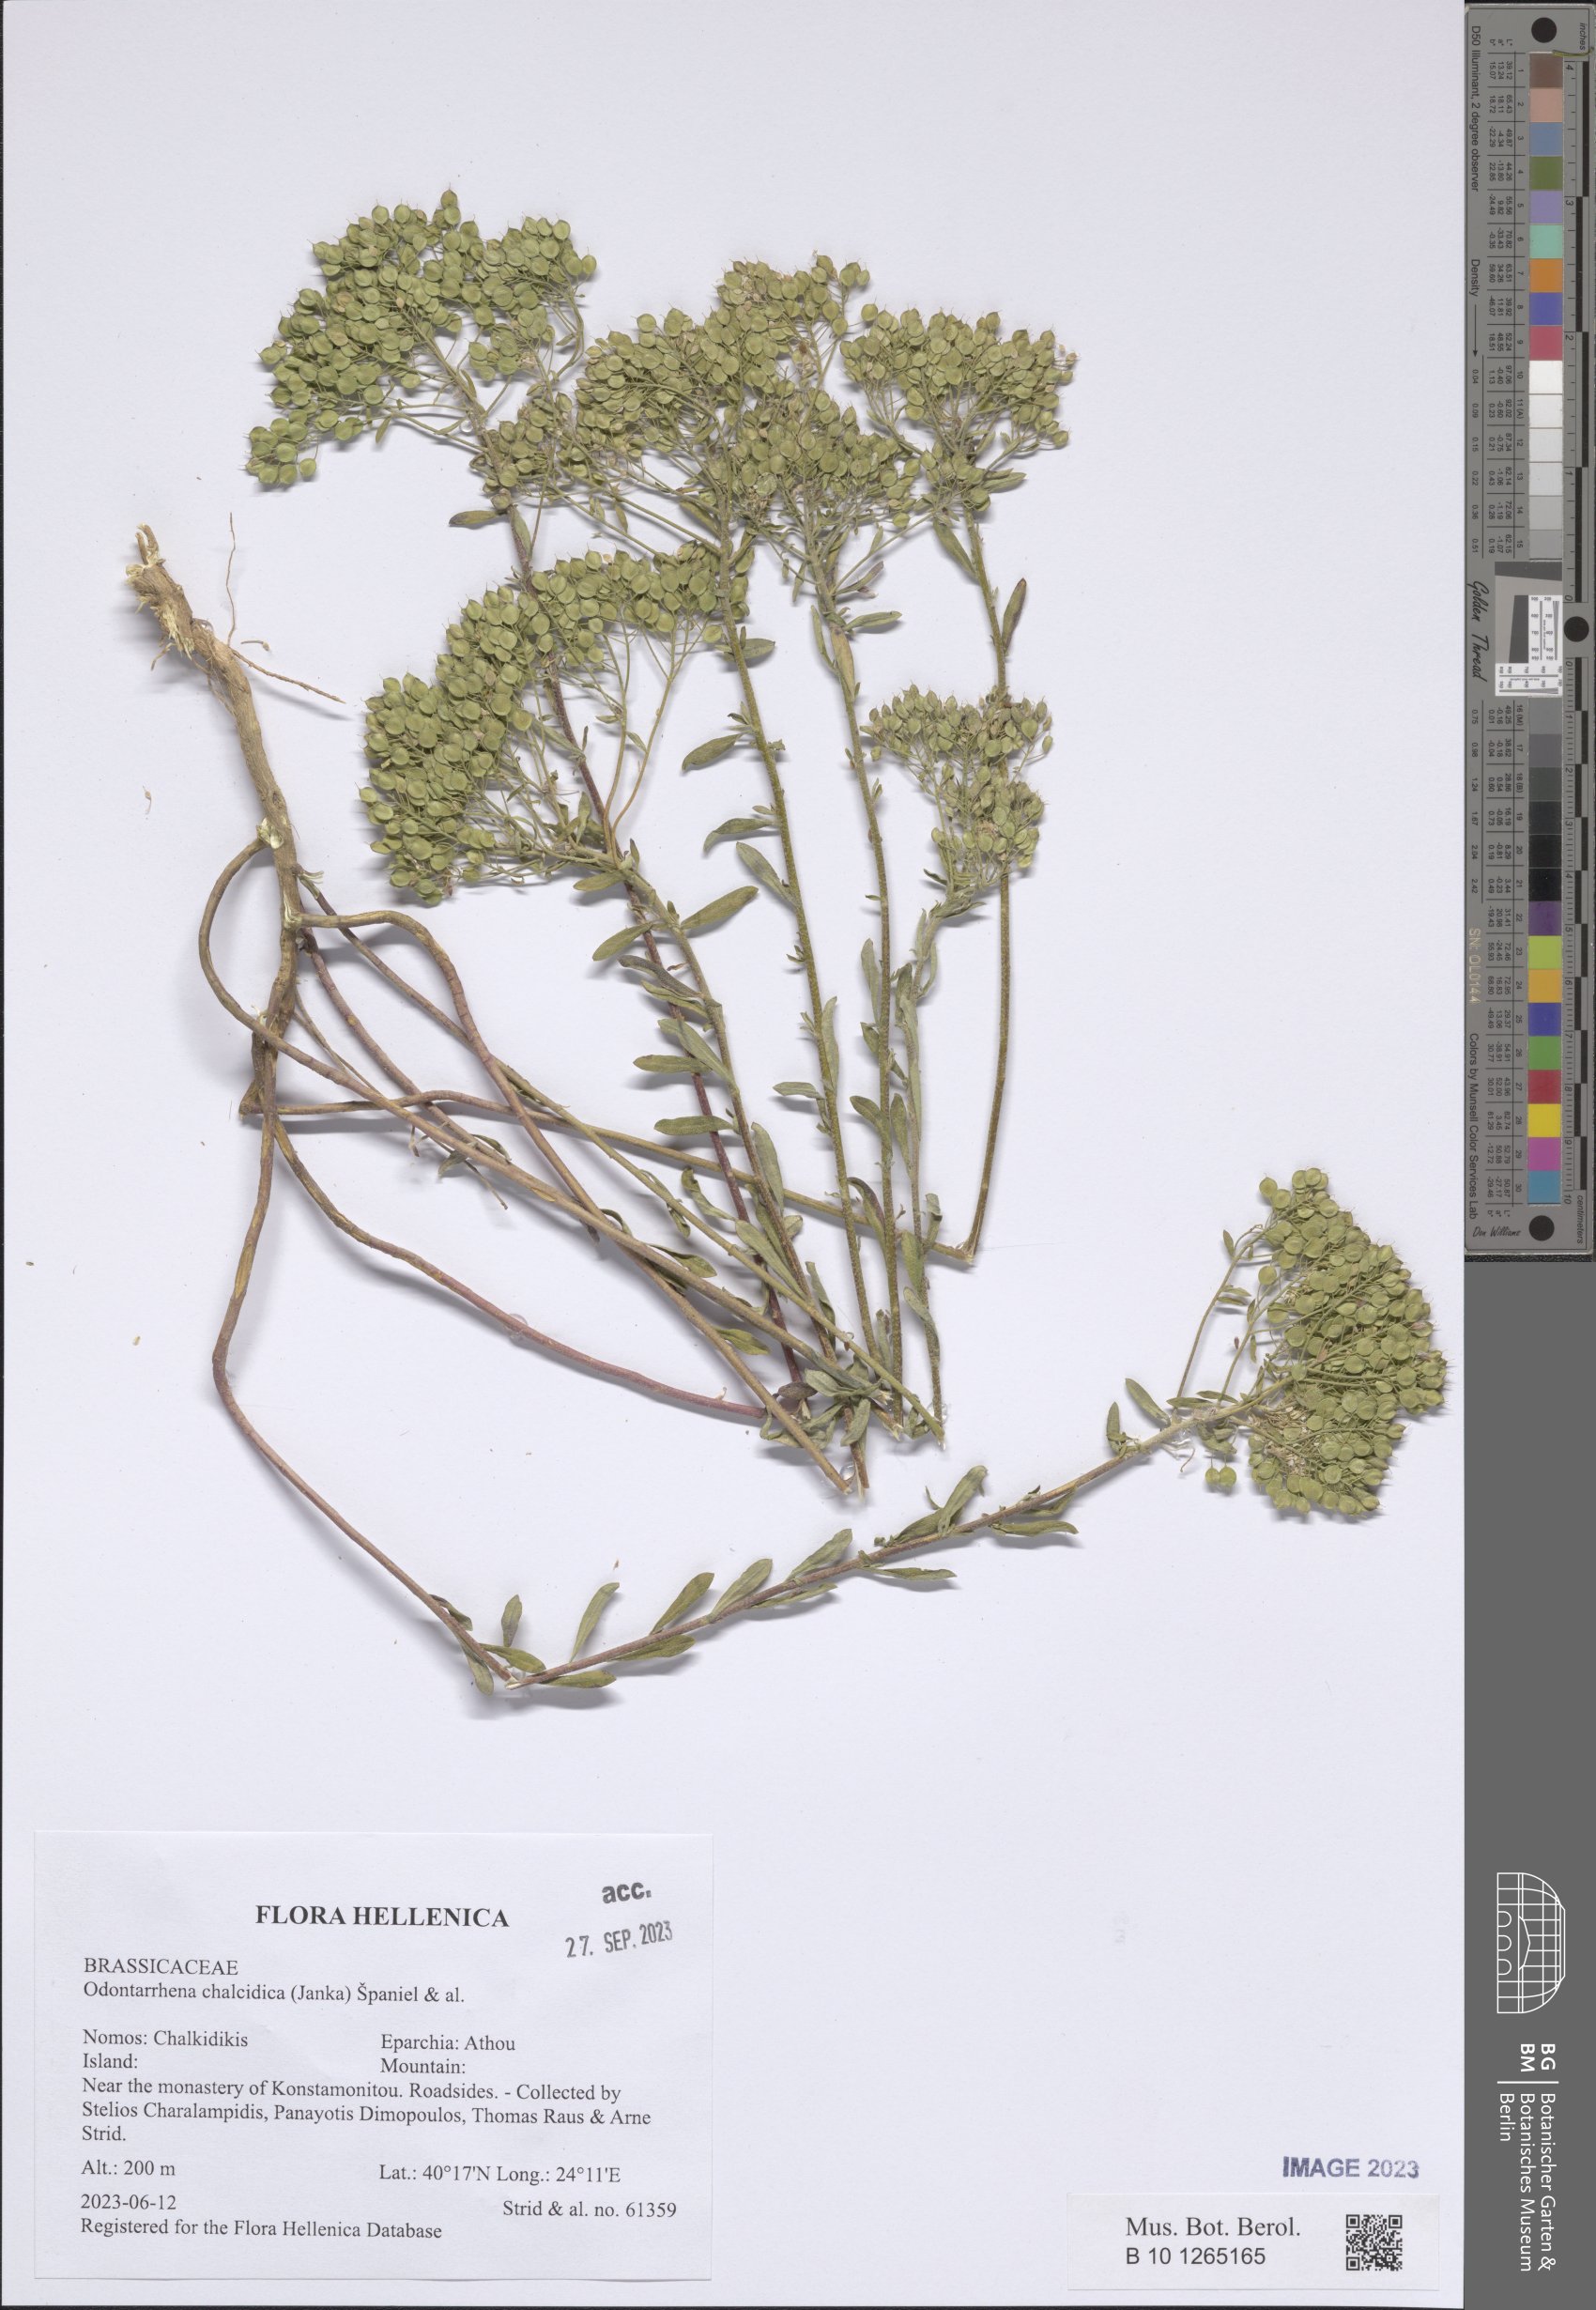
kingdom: Plantae
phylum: Tracheophyta
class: Magnoliopsida
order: Brassicales
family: Brassicaceae
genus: Odontarrhena
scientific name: Odontarrhena chalcidica
